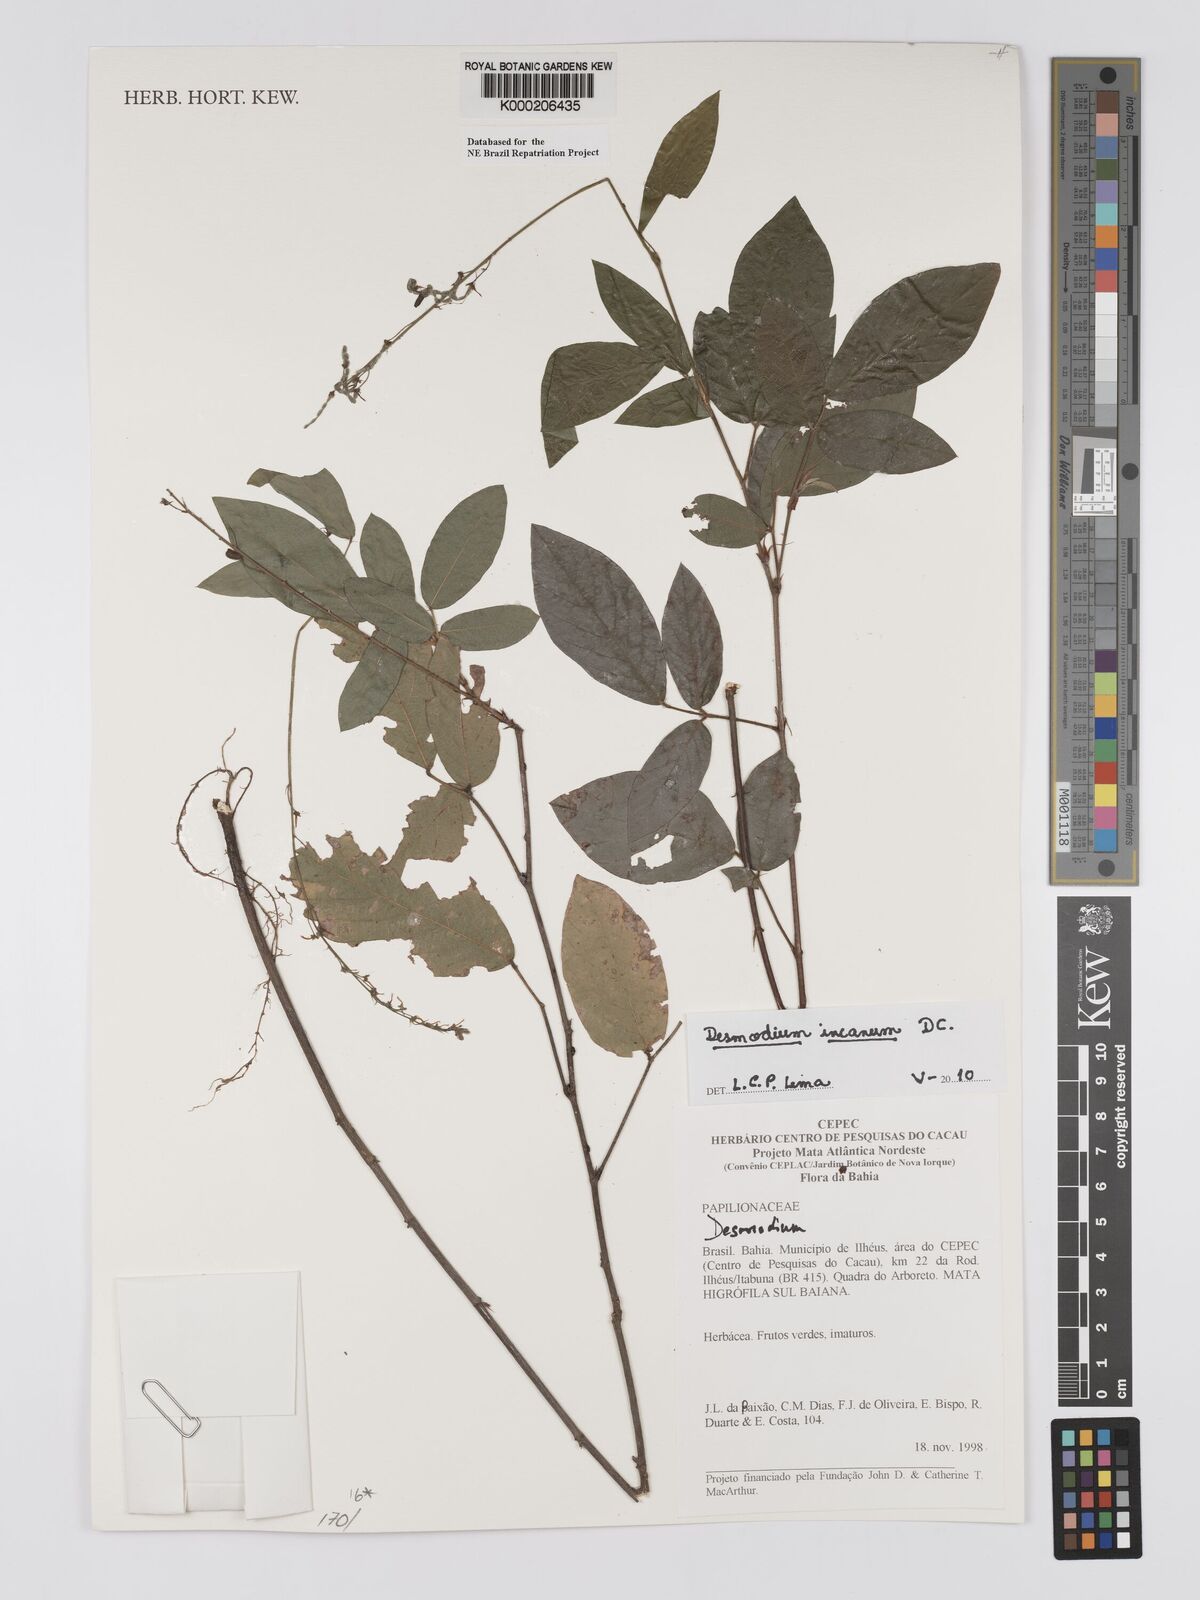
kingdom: Plantae
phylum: Tracheophyta
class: Magnoliopsida
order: Fabales
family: Fabaceae
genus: Desmodium
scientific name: Desmodium
